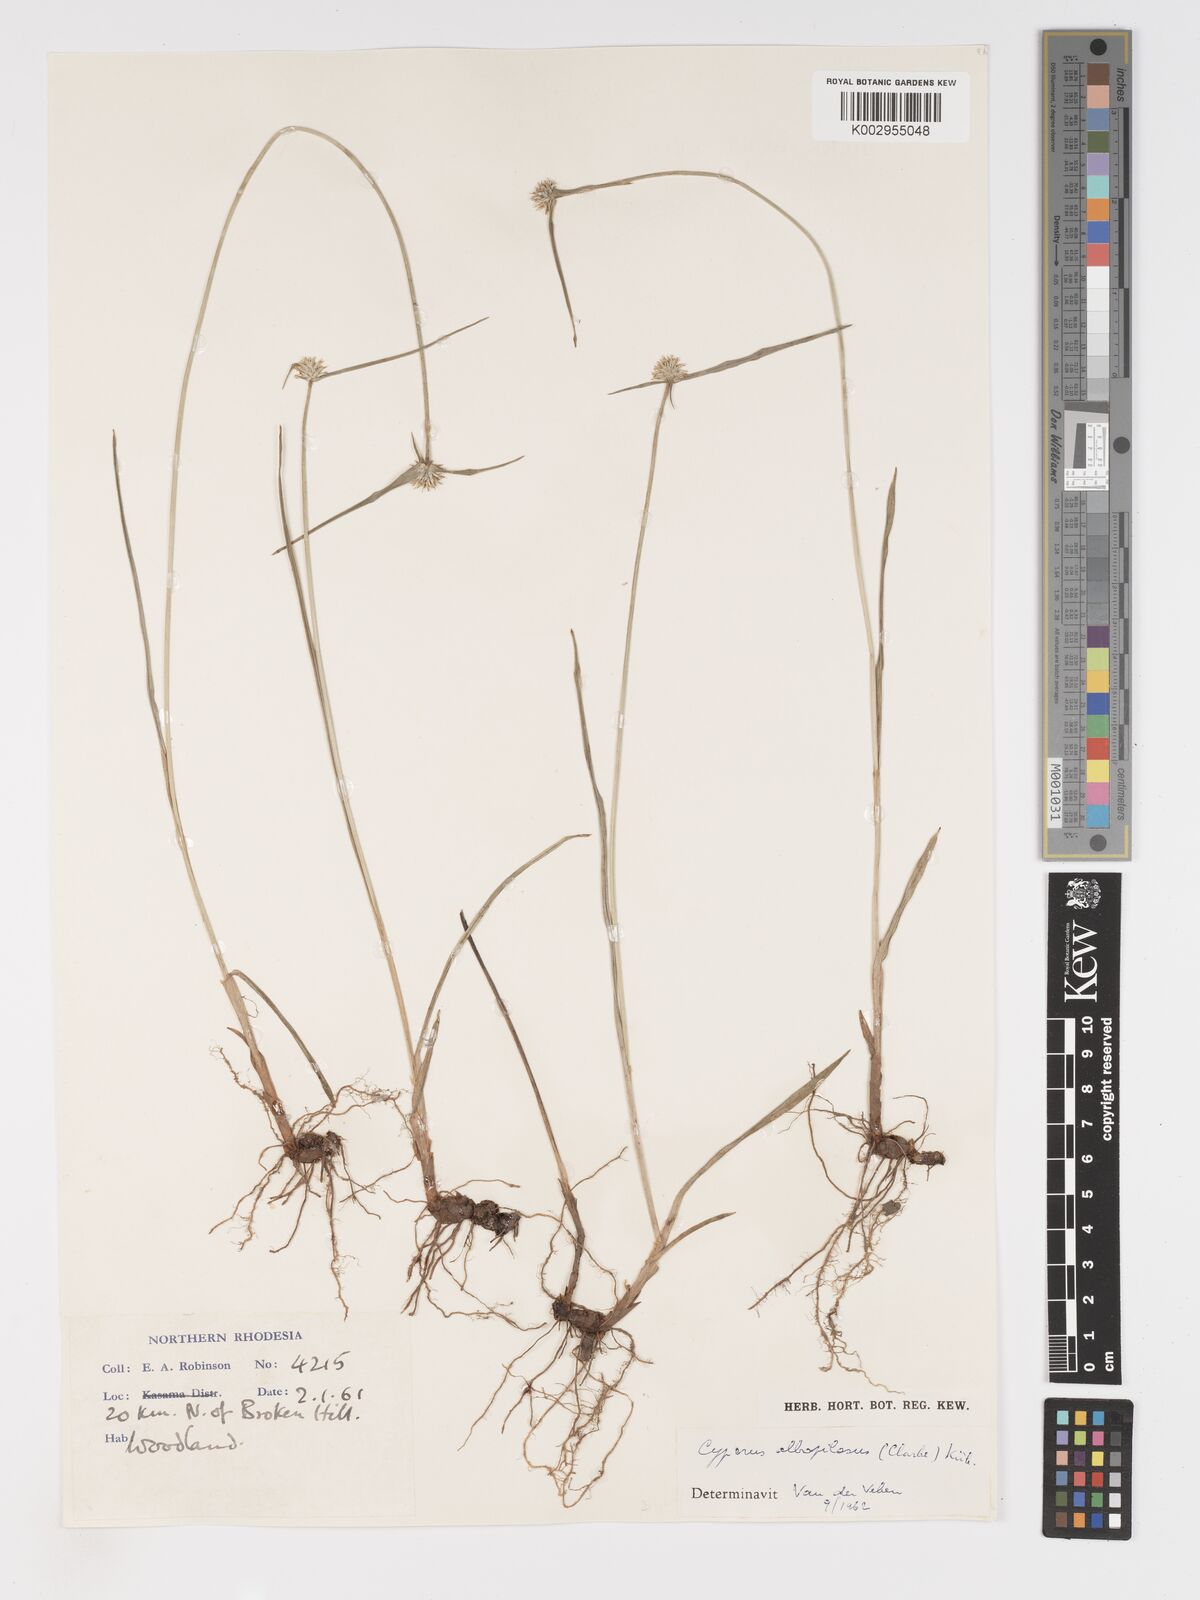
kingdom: Plantae
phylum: Tracheophyta
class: Liliopsida
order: Poales
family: Cyperaceae
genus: Cyperus
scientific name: Cyperus albopilosus
